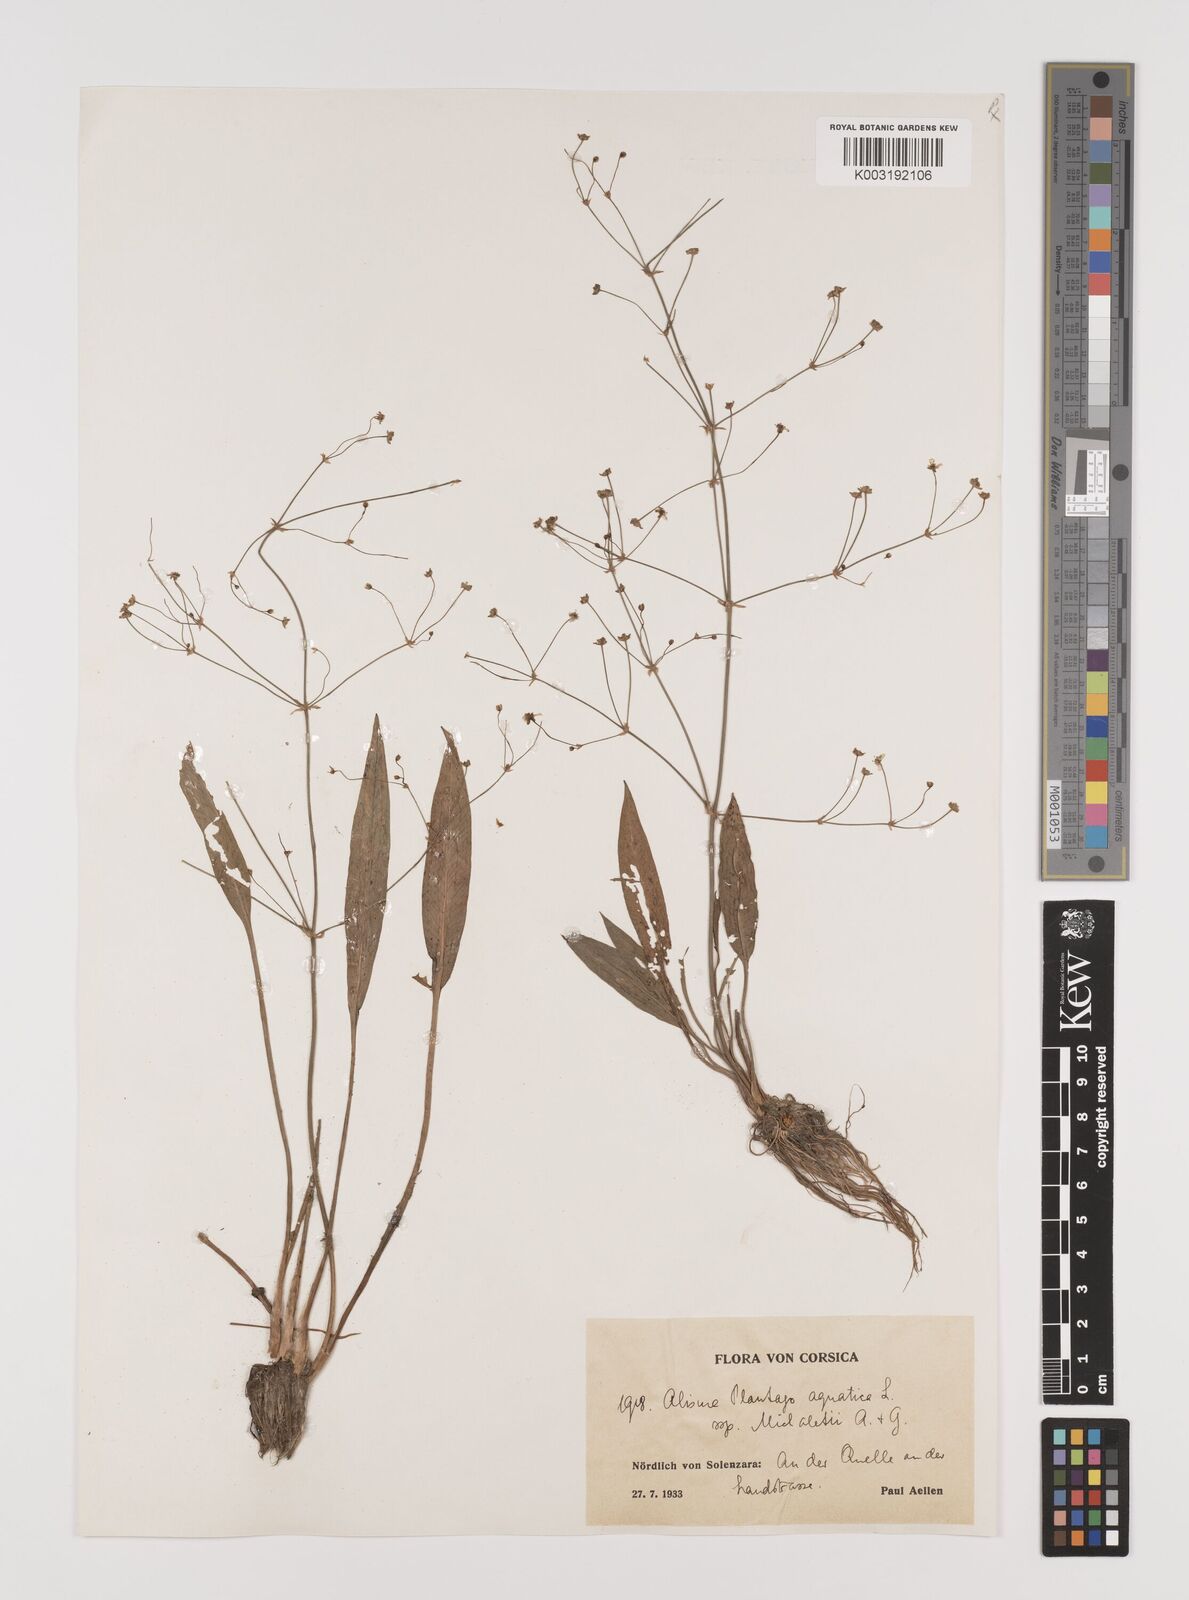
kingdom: Plantae
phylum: Tracheophyta
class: Liliopsida
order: Alismatales
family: Alismataceae
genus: Alisma
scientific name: Alisma plantago-aquatica
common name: Water-plantain
